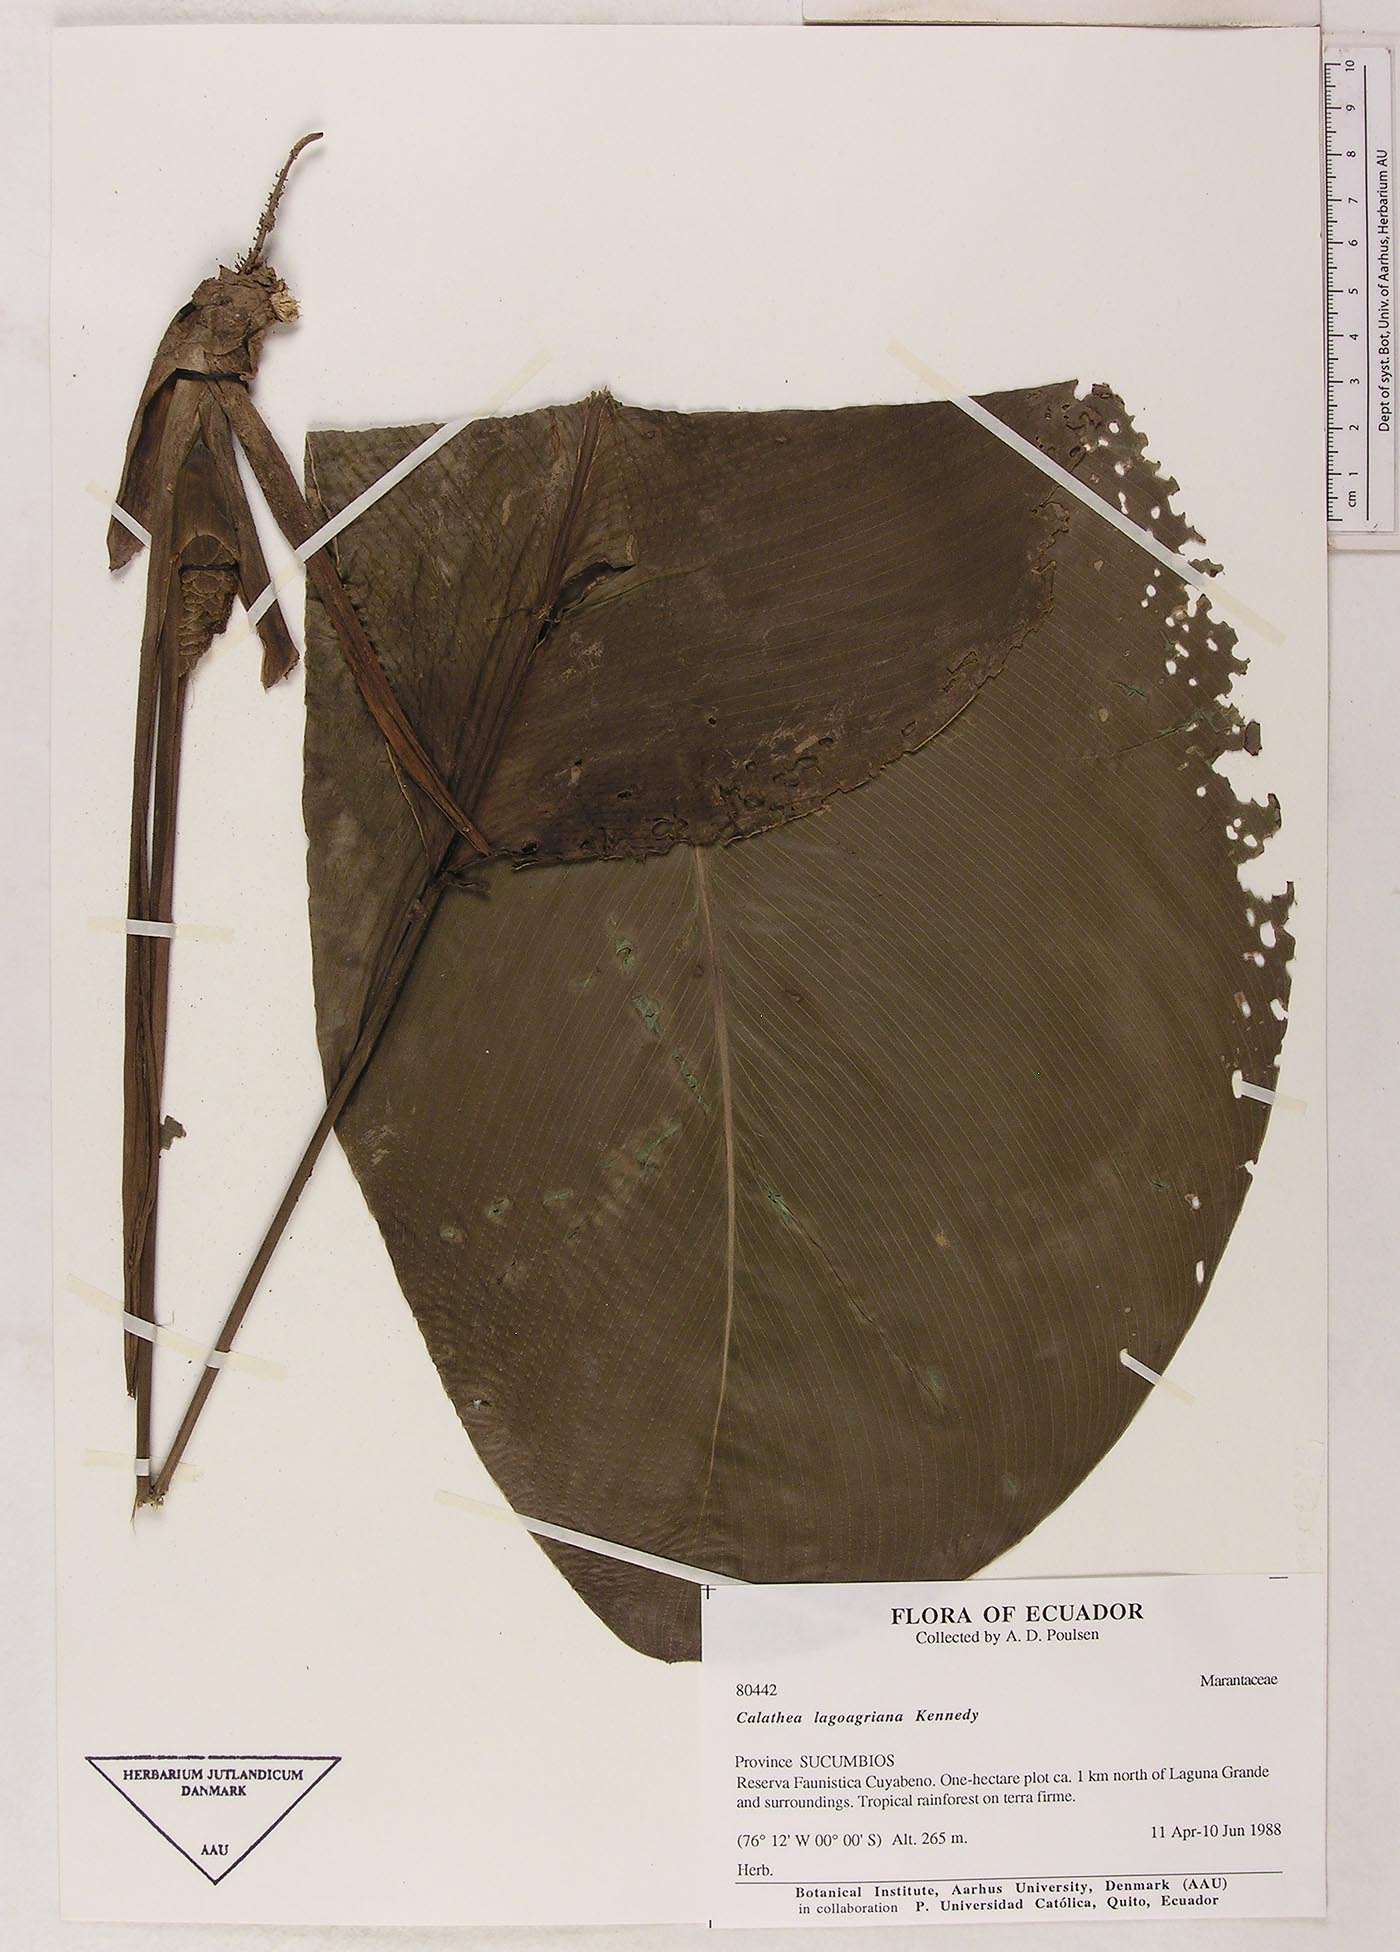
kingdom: Plantae
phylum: Tracheophyta
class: Liliopsida
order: Zingiberales
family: Marantaceae
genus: Goeppertia
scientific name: Goeppertia lagoagriana
